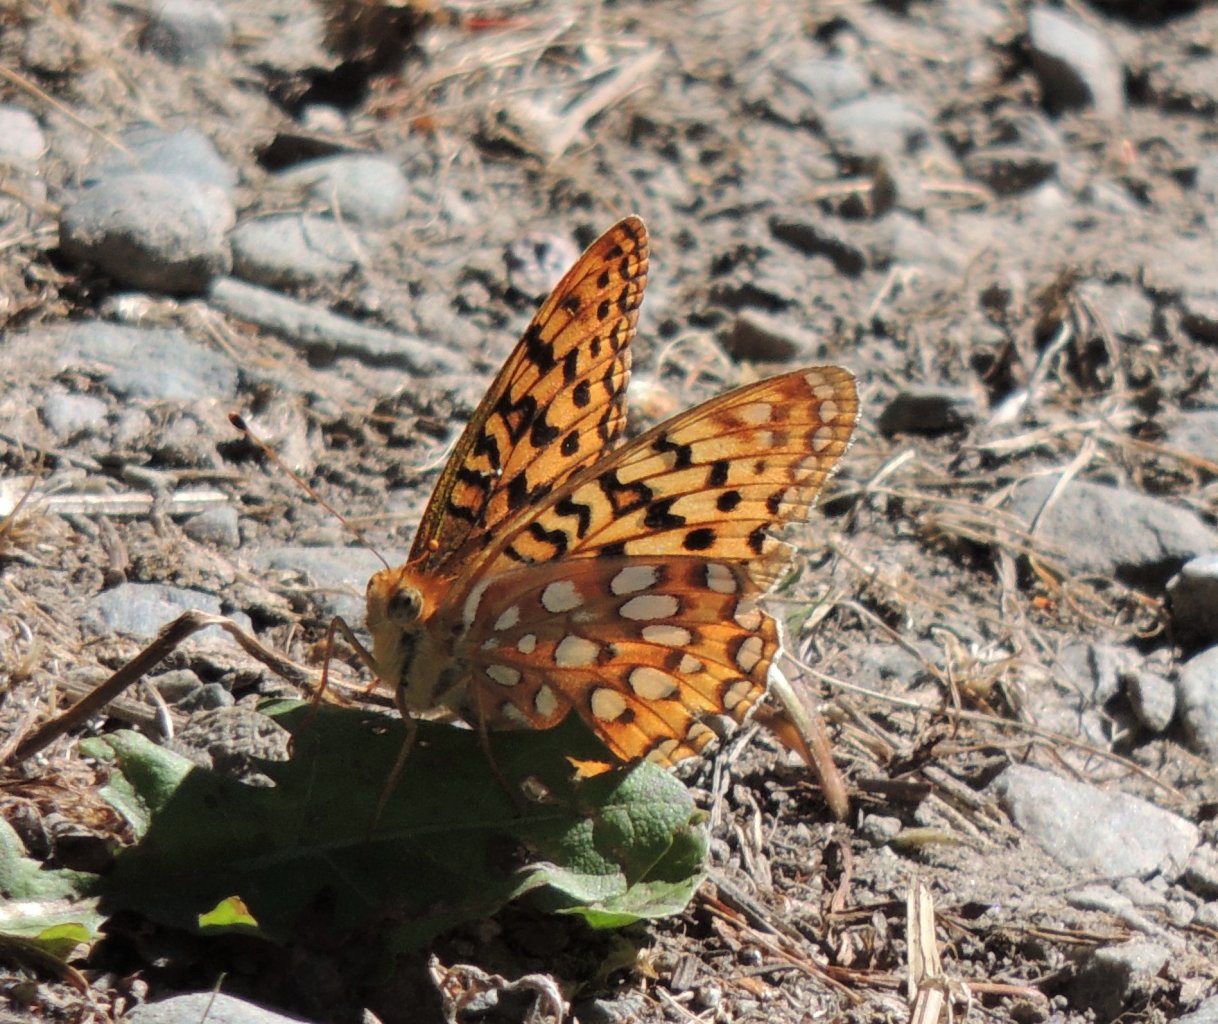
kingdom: Animalia
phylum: Arthropoda
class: Insecta
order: Lepidoptera
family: Nymphalidae
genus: Speyeria
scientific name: Speyeria zerene
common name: Zerene Fritillary
